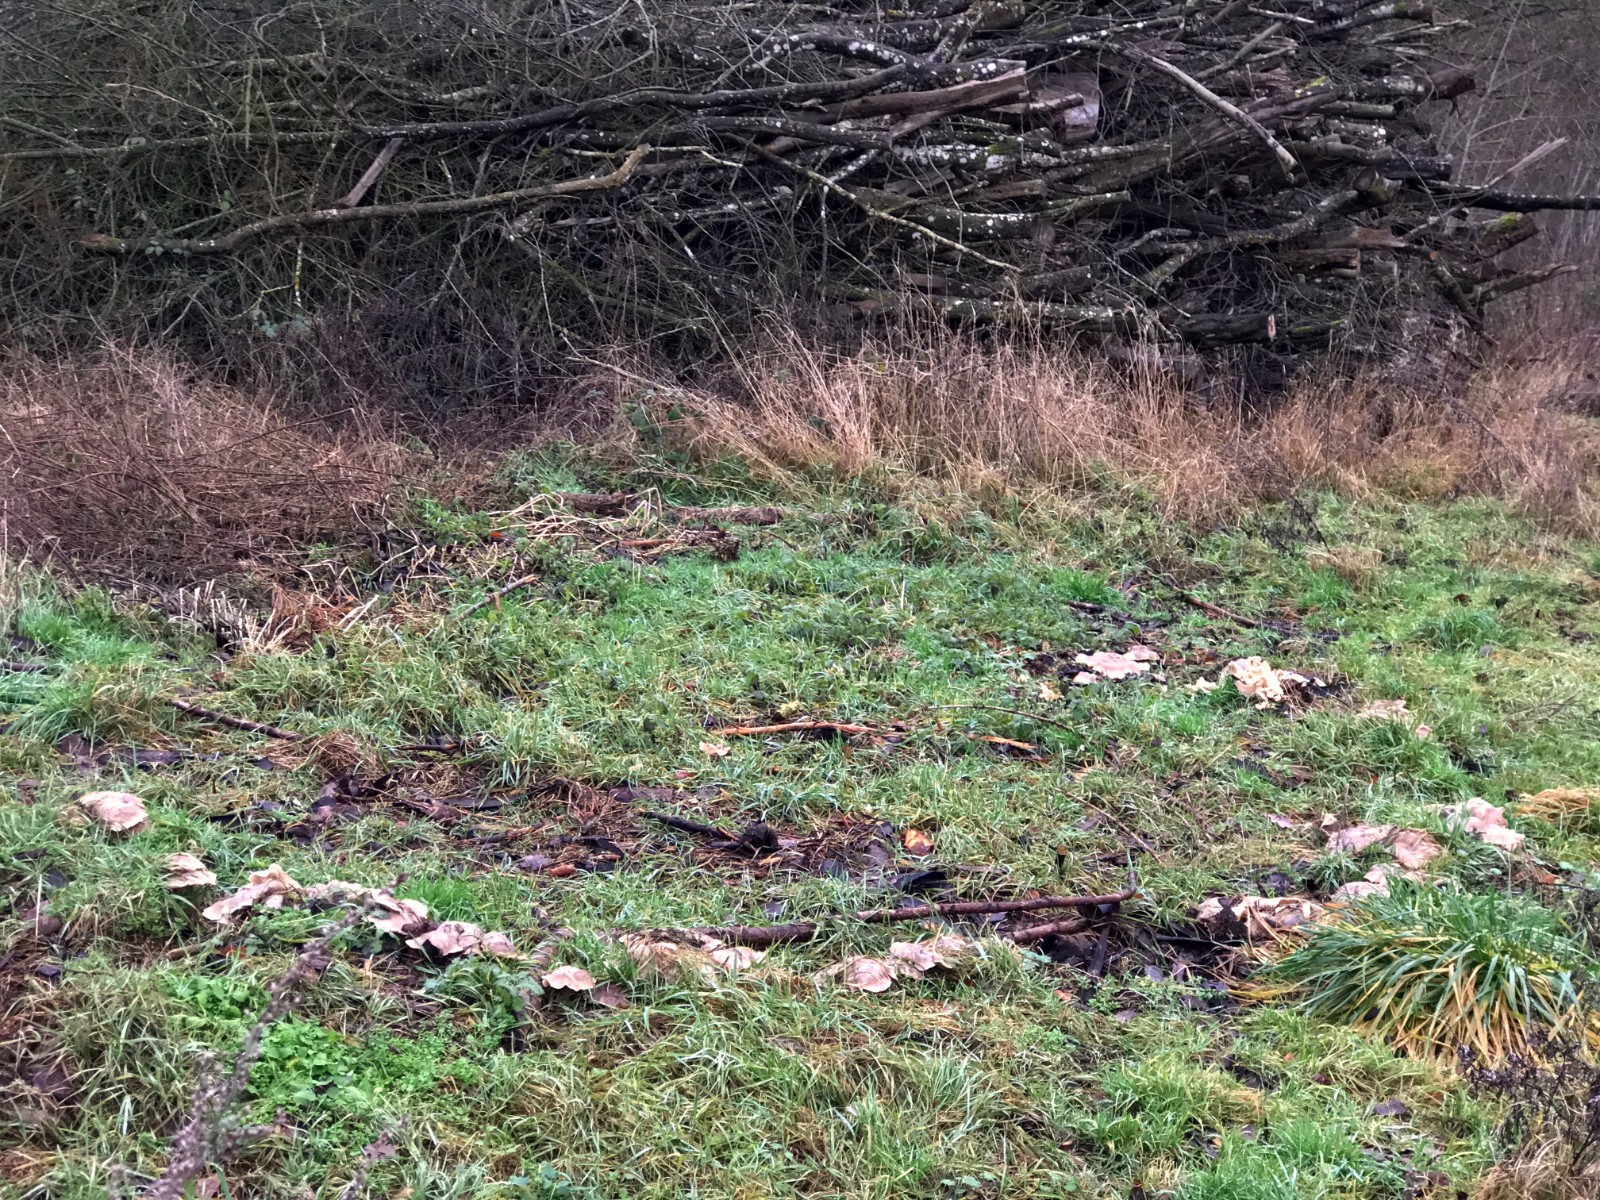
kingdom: Fungi
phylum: Basidiomycota
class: Agaricomycetes
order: Agaricales
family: Tricholomataceae
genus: Clitocybe
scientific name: Clitocybe nebularis
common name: tåge-tragthat
